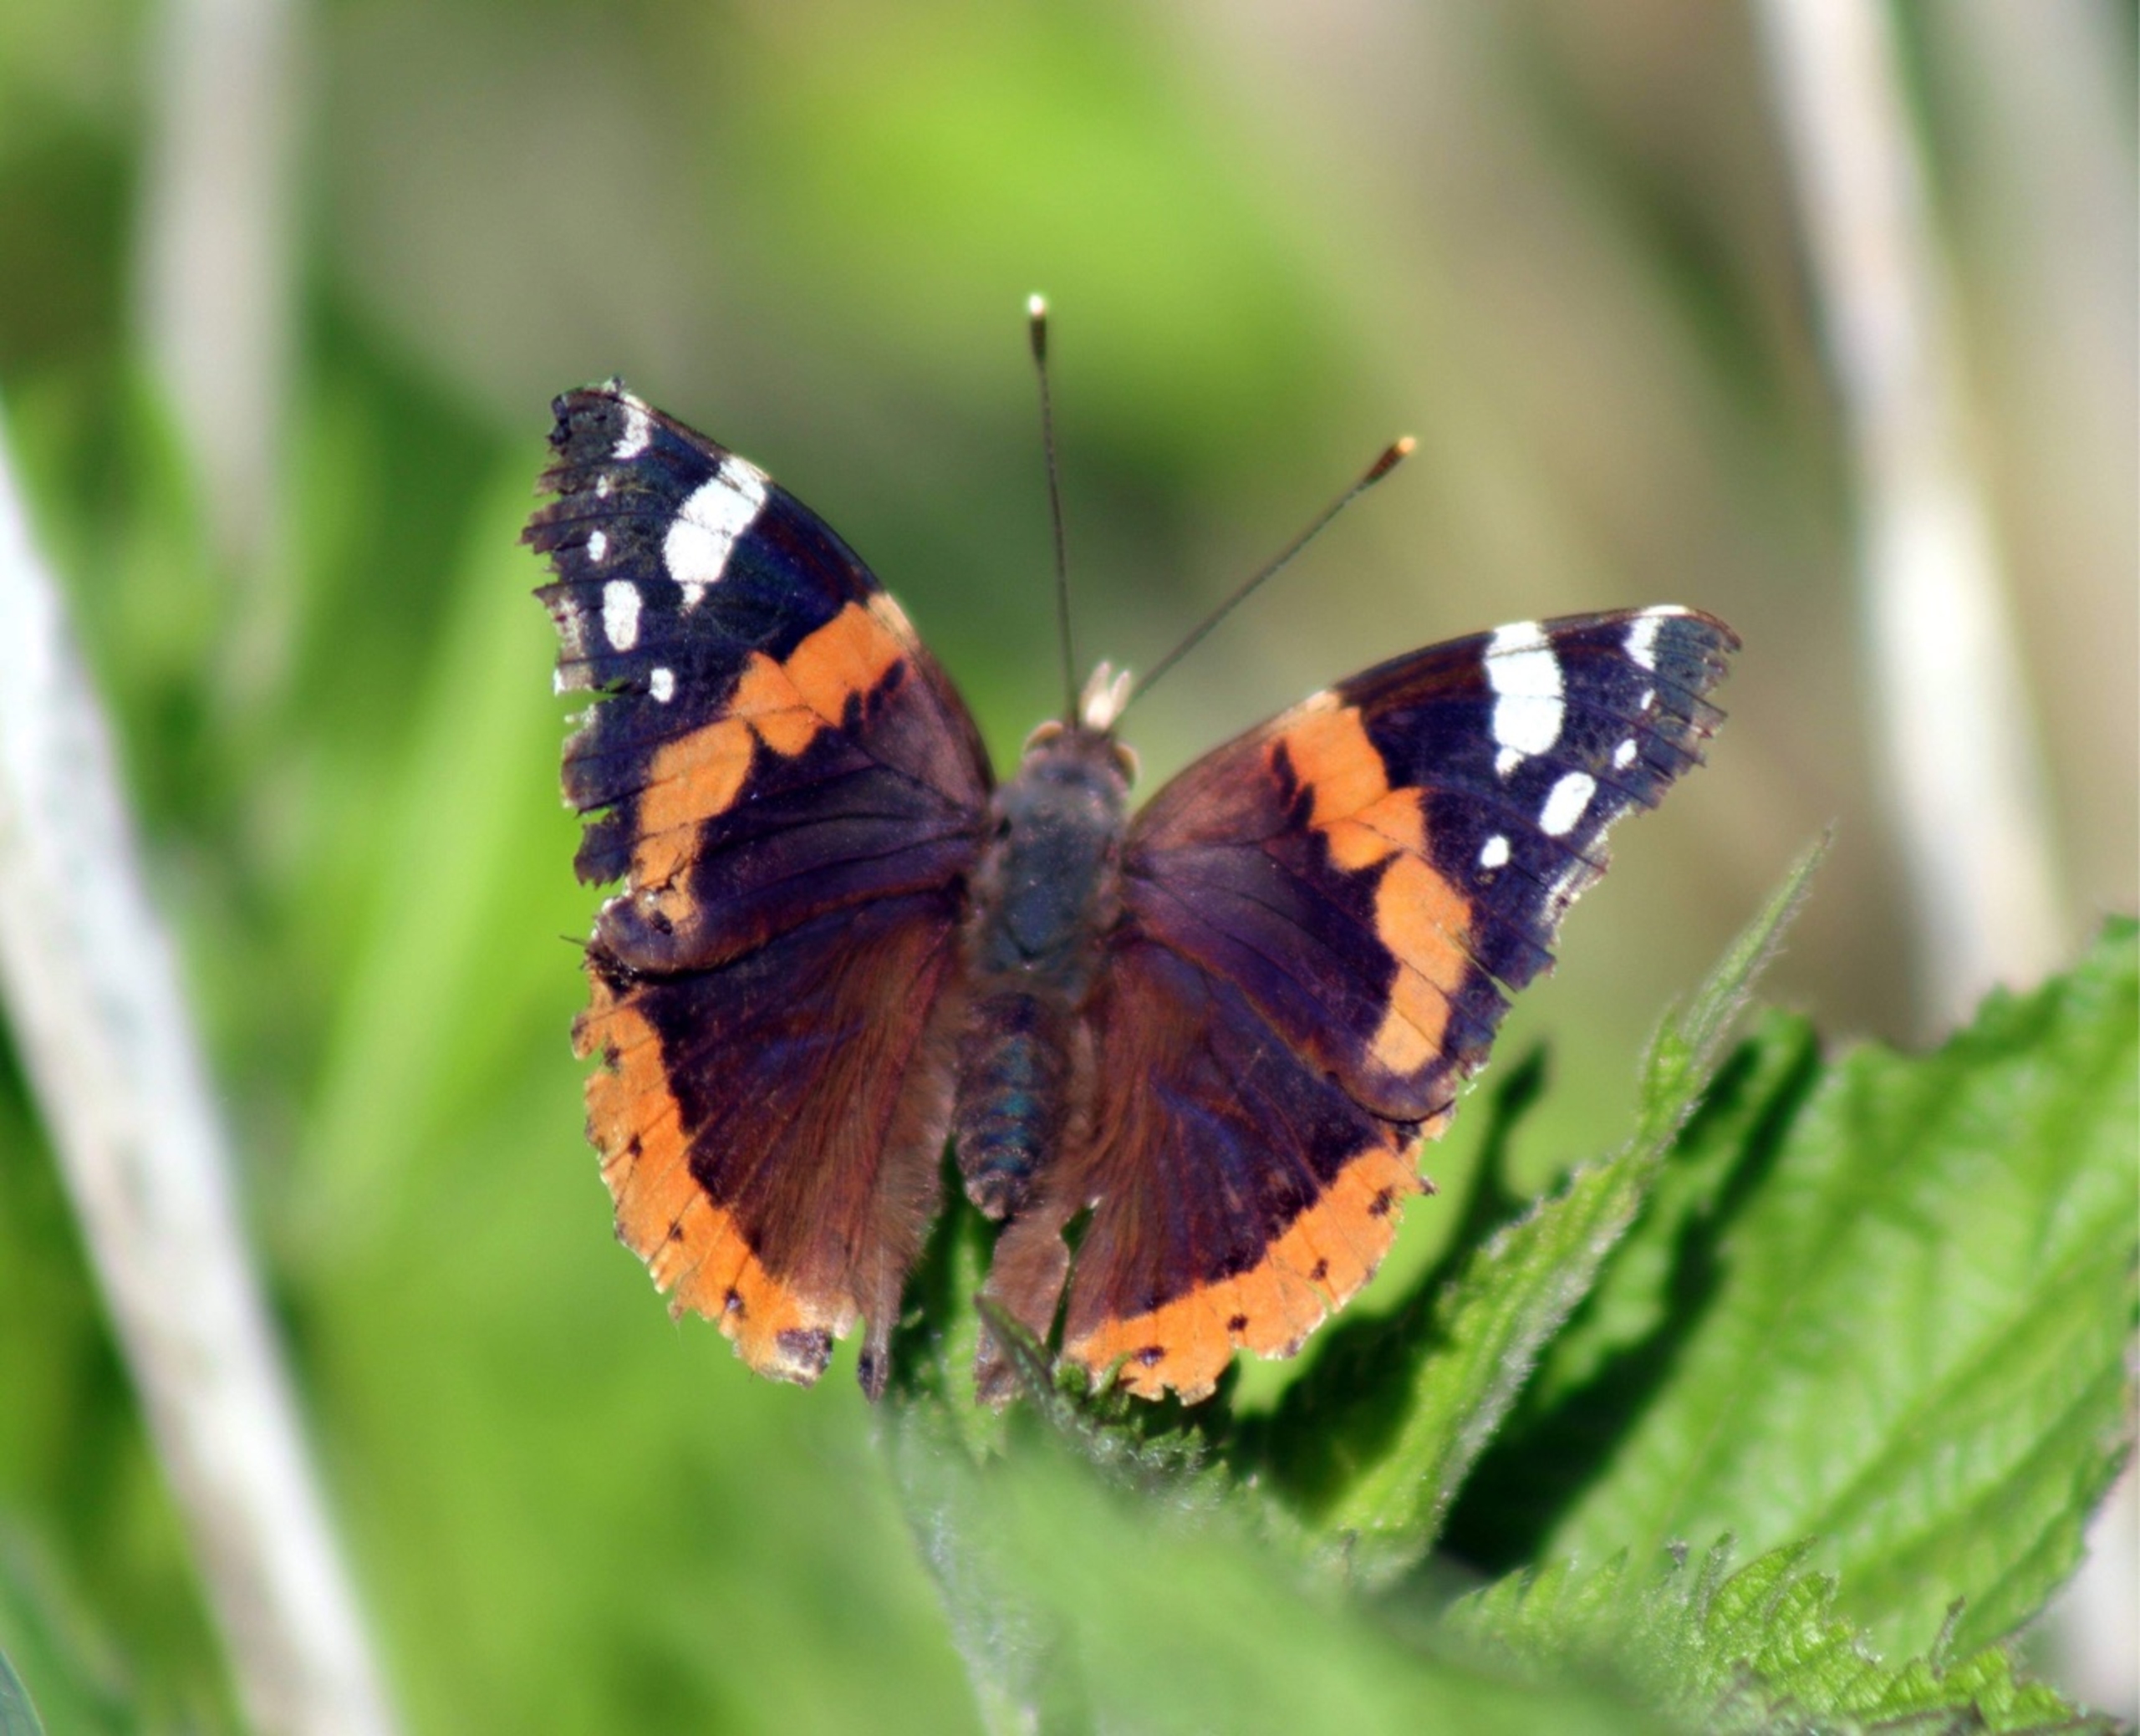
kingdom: Animalia
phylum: Arthropoda
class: Insecta
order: Lepidoptera
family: Nymphalidae
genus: Vanessa
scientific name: Vanessa atalanta
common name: Admiral
